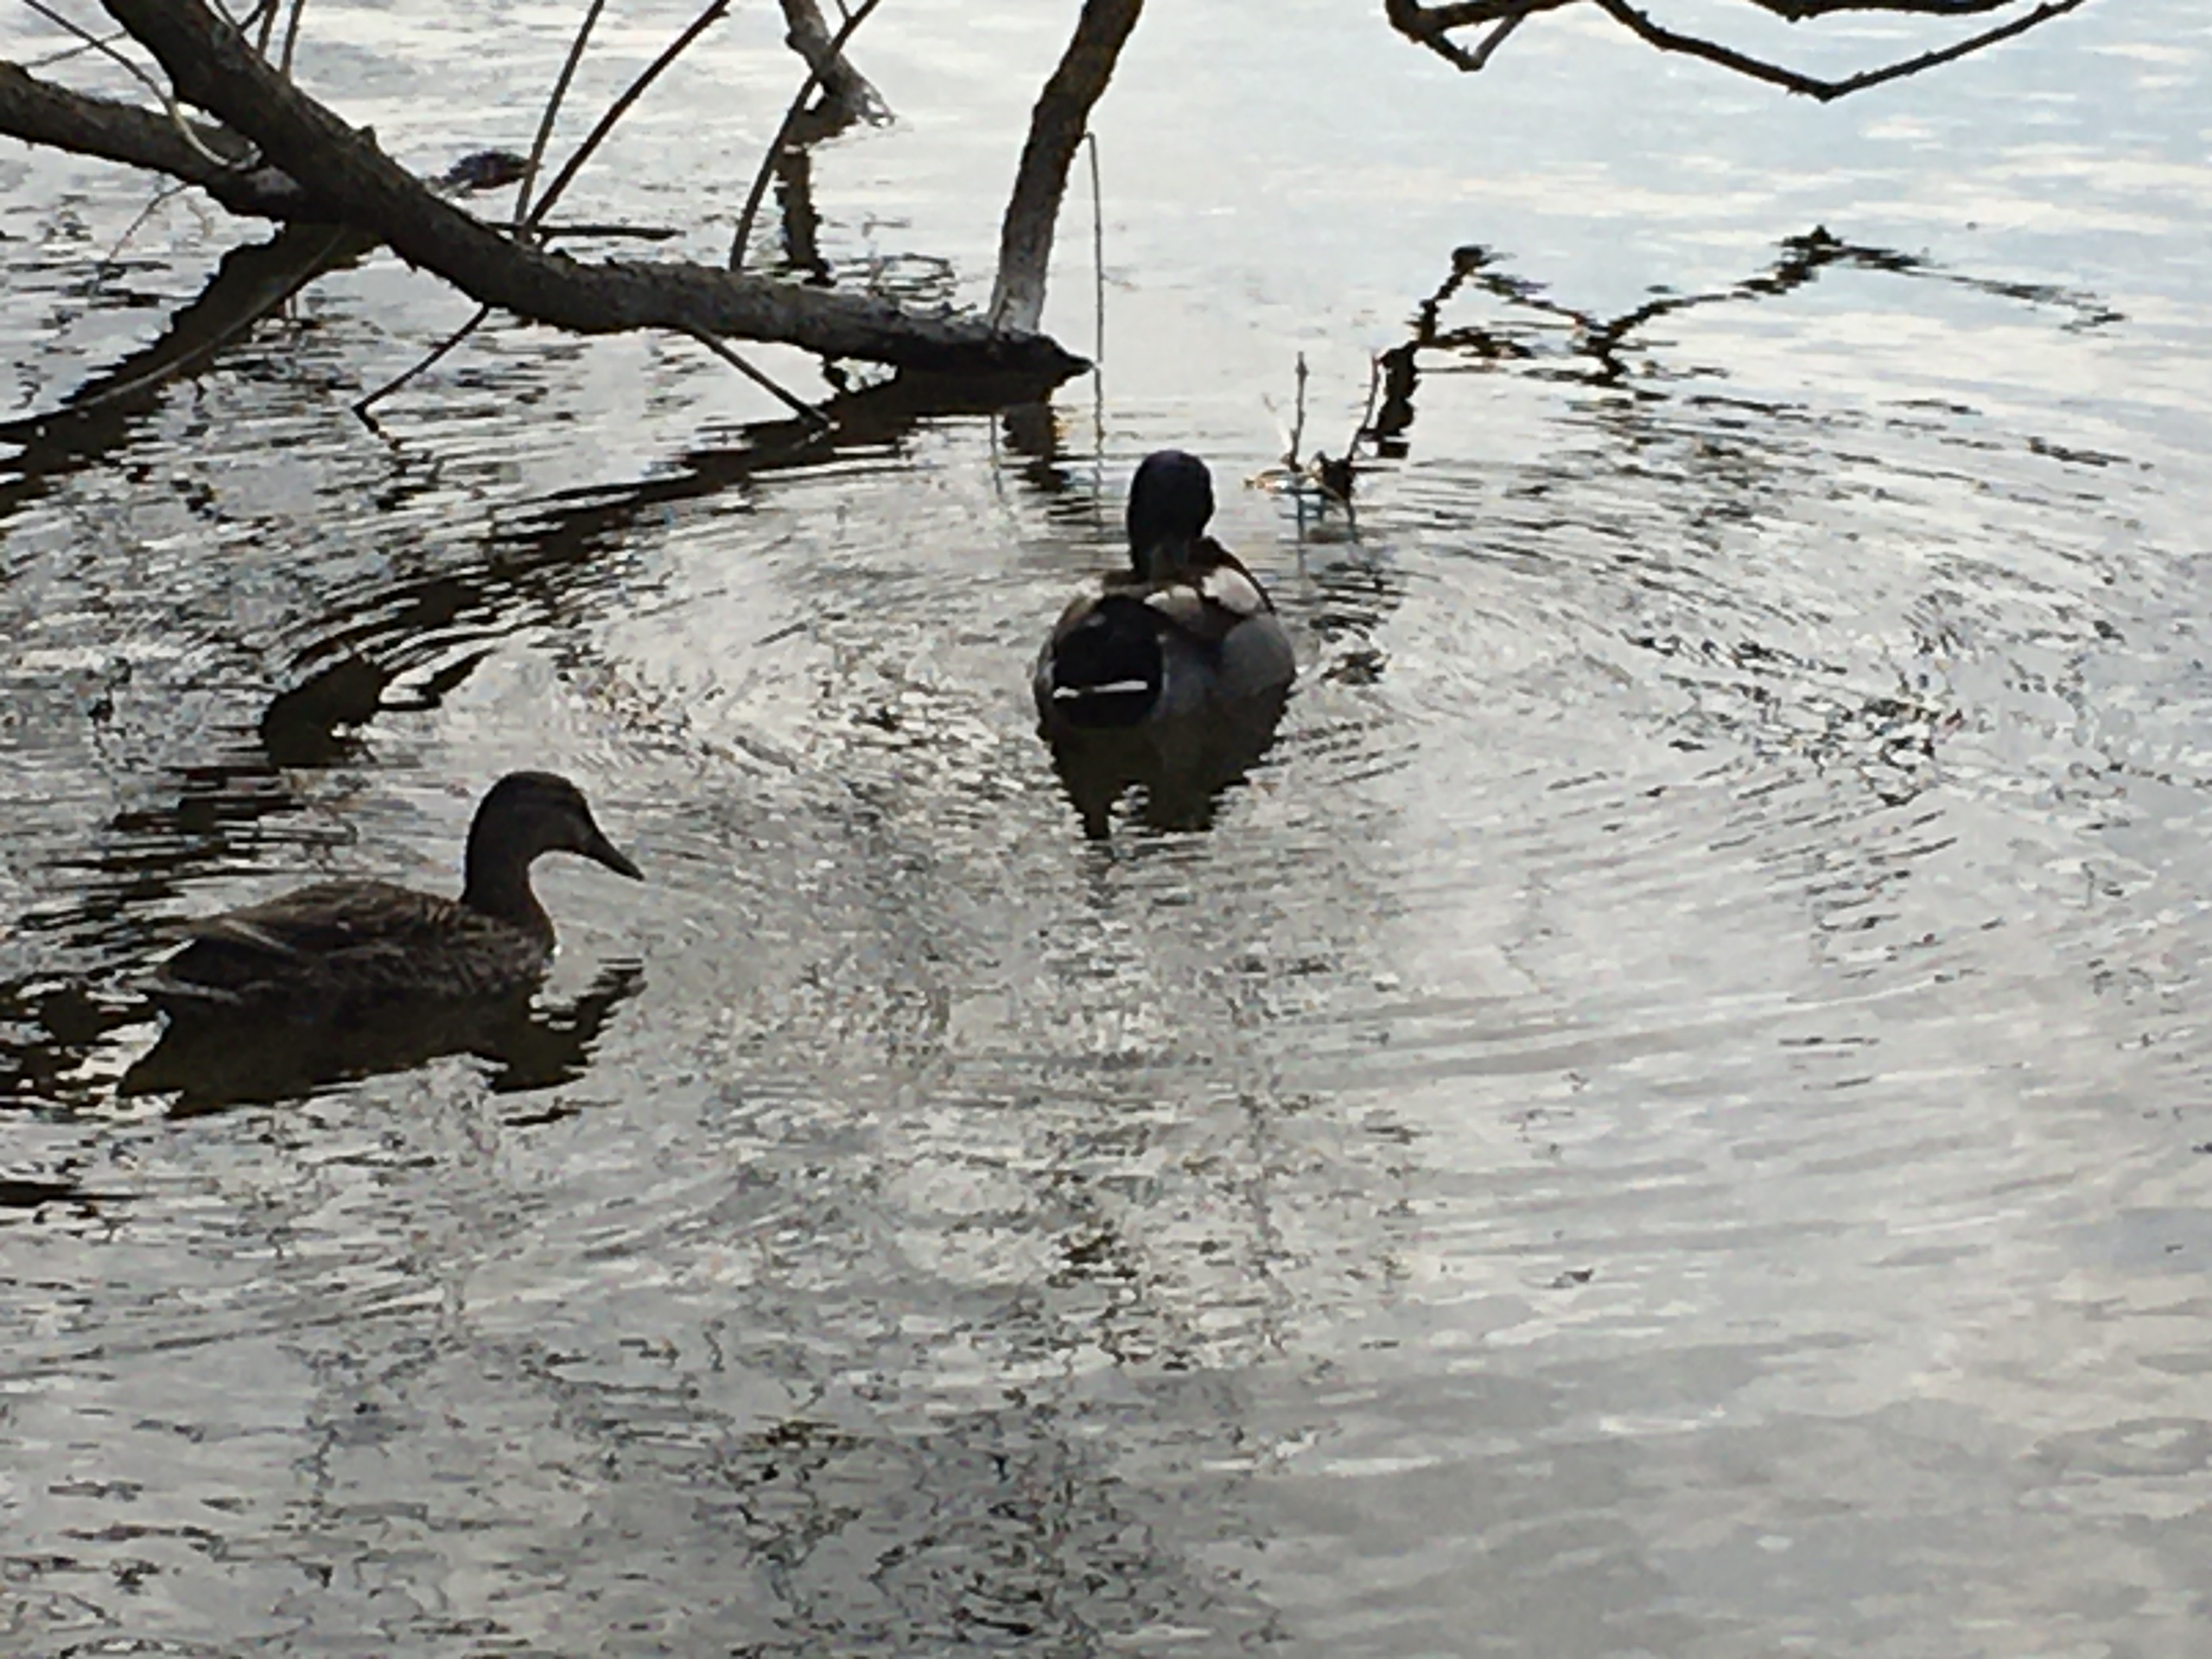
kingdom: Animalia
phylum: Chordata
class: Aves
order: Anseriformes
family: Anatidae
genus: Anas
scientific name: Anas platyrhynchos
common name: Gråand
